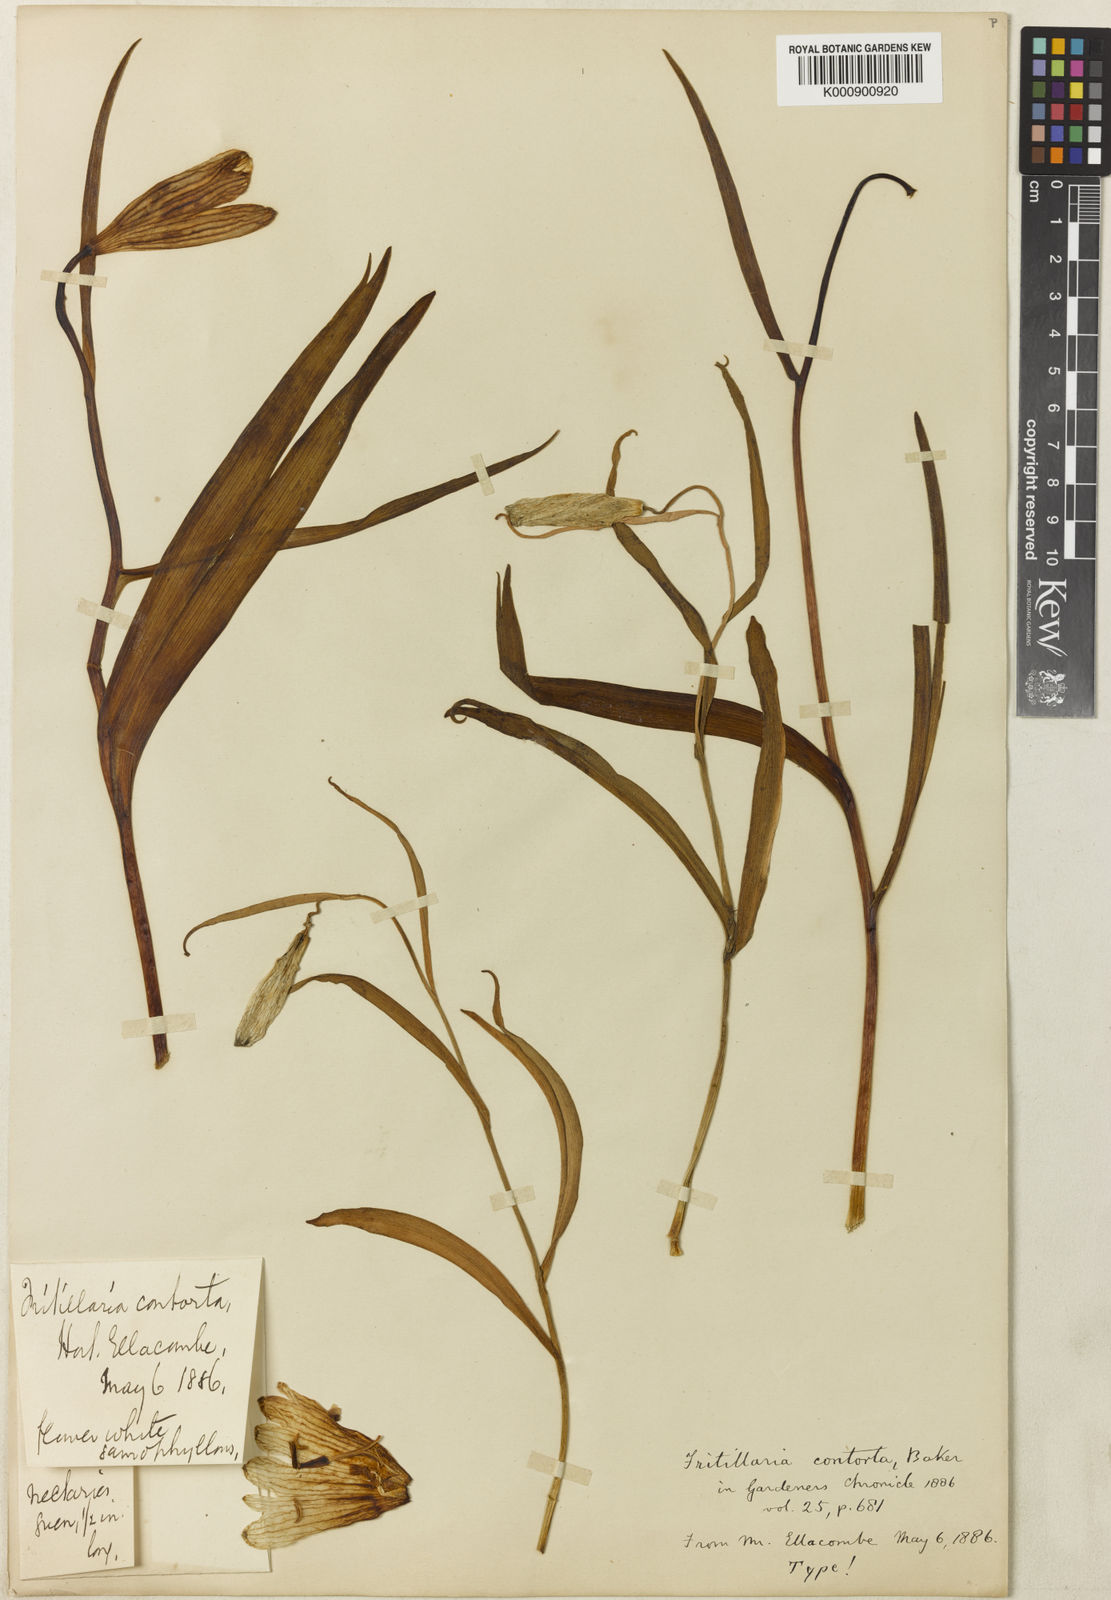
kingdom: Plantae
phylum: Tracheophyta
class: Liliopsida
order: Liliales
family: Liliaceae
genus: Fritillaria
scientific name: Fritillaria meleagris
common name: Fritillary
